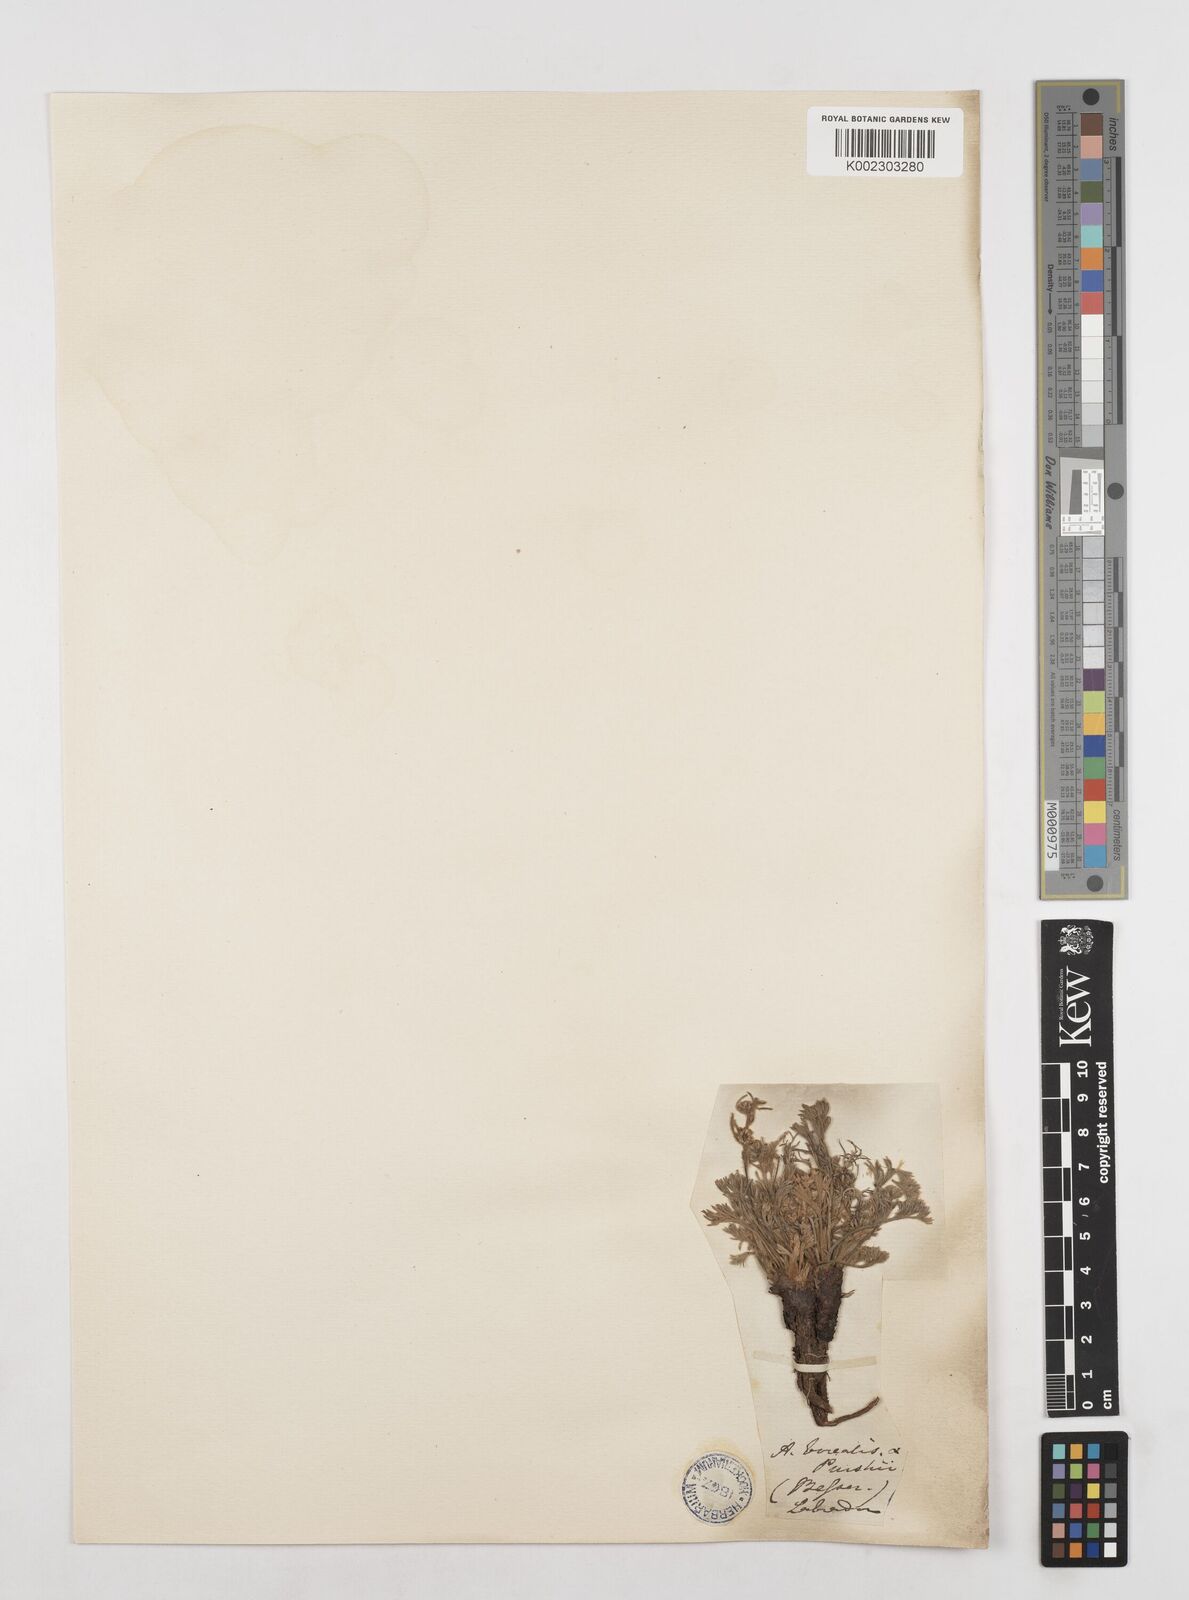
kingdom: Plantae
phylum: Tracheophyta
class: Magnoliopsida
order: Asterales
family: Asteraceae
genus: Artemisia
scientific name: Artemisia borealis
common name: Boreal sage
